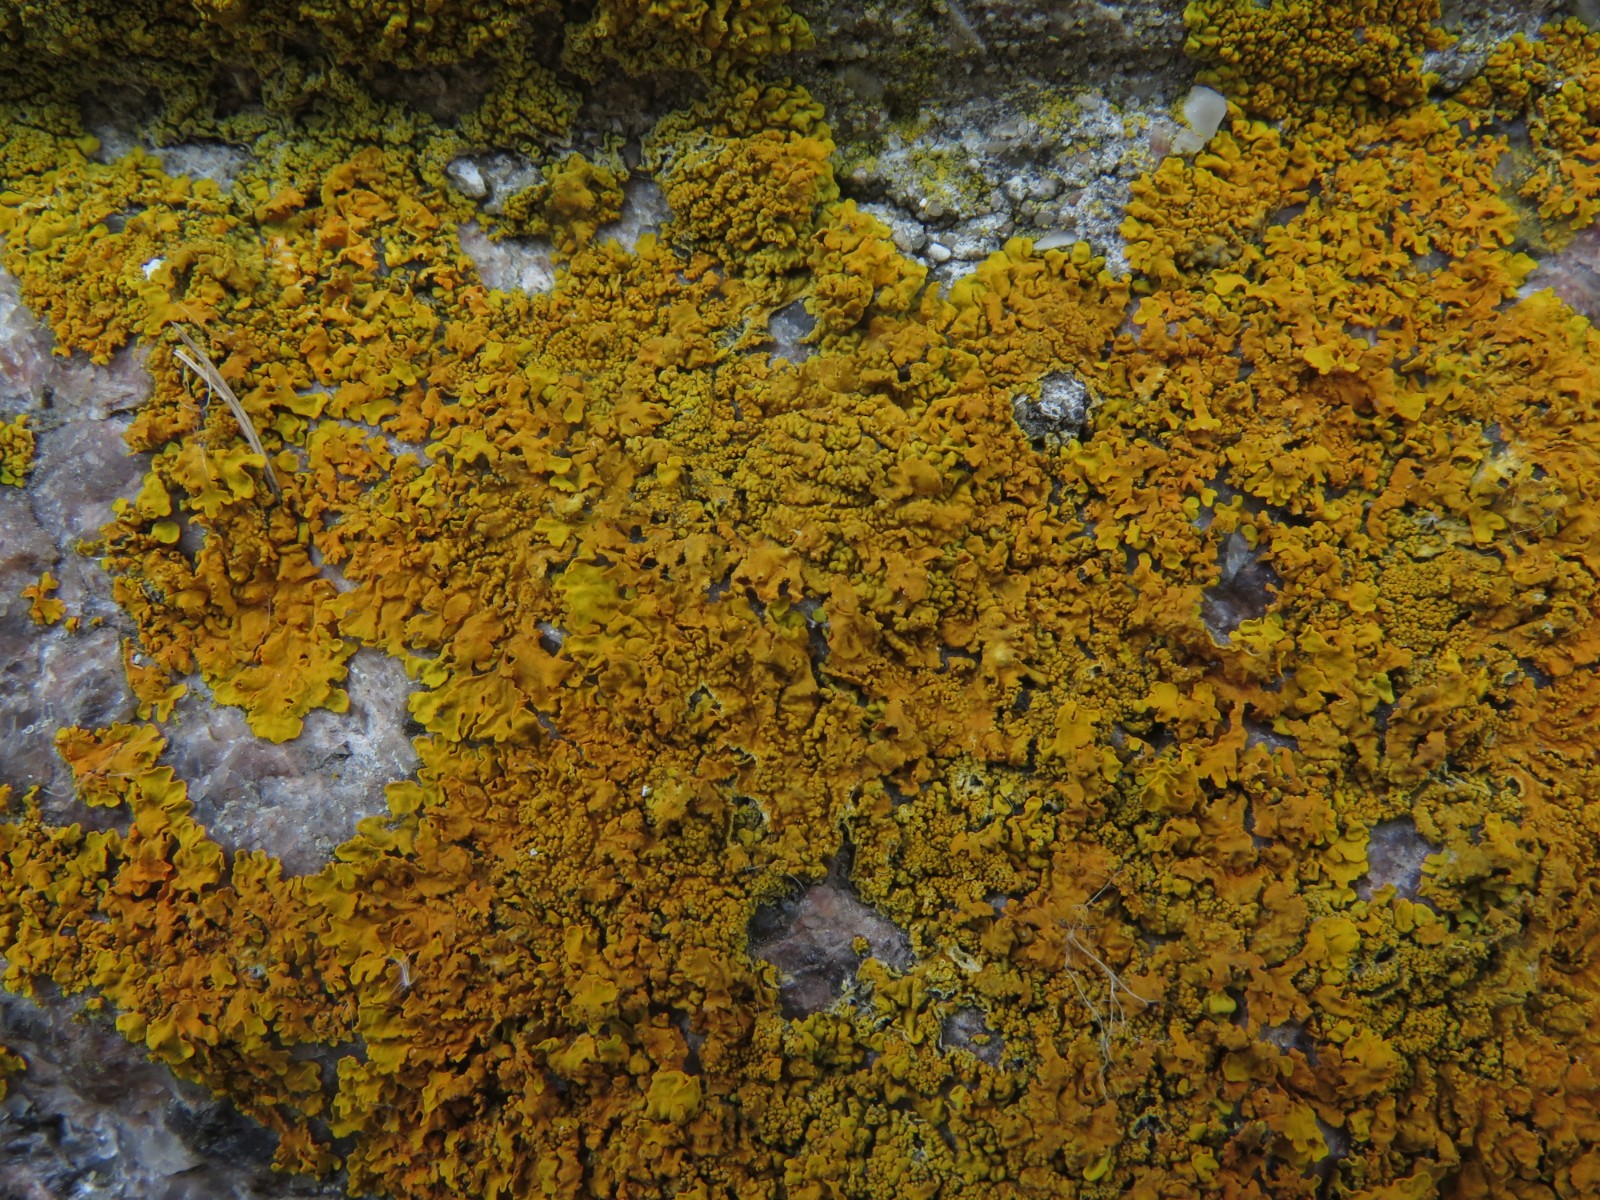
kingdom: Fungi
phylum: Ascomycota
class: Lecanoromycetes
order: Teloschistales
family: Teloschistaceae
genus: Xanthoria
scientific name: Xanthoria calcicola
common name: vortet væggelav
